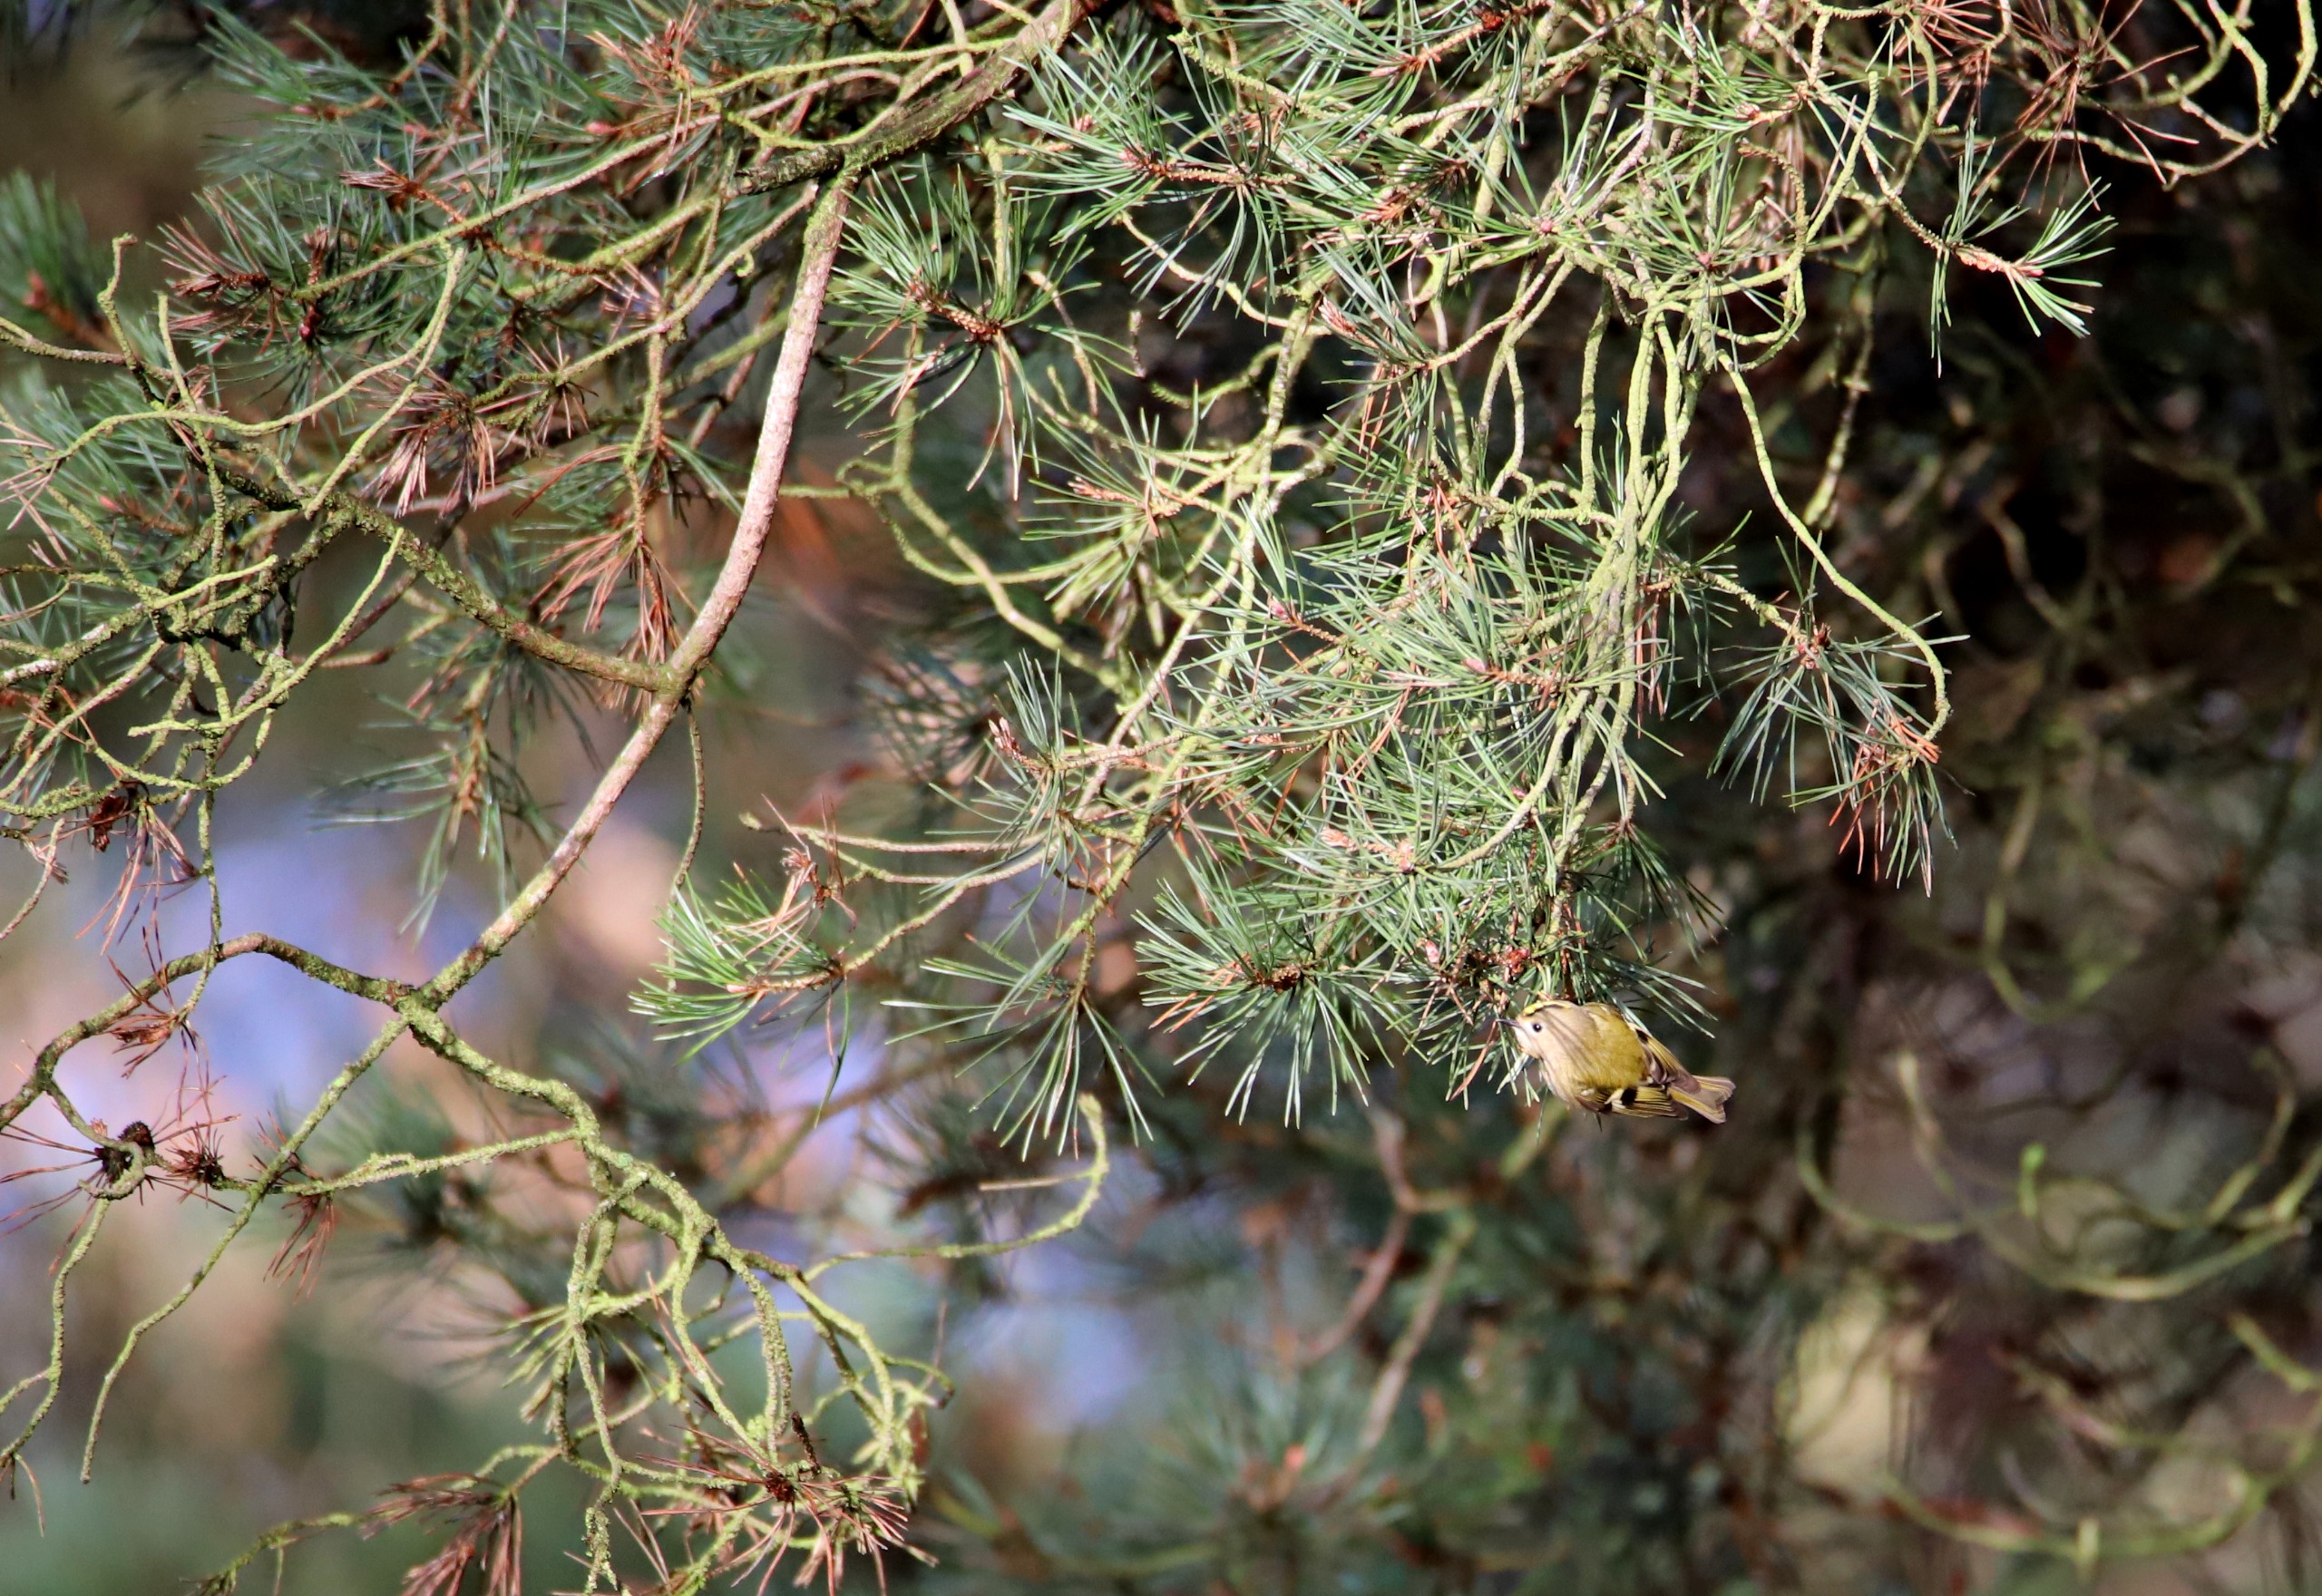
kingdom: Animalia
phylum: Chordata
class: Aves
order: Passeriformes
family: Regulidae
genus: Regulus
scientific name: Regulus regulus
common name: Fuglekonge
